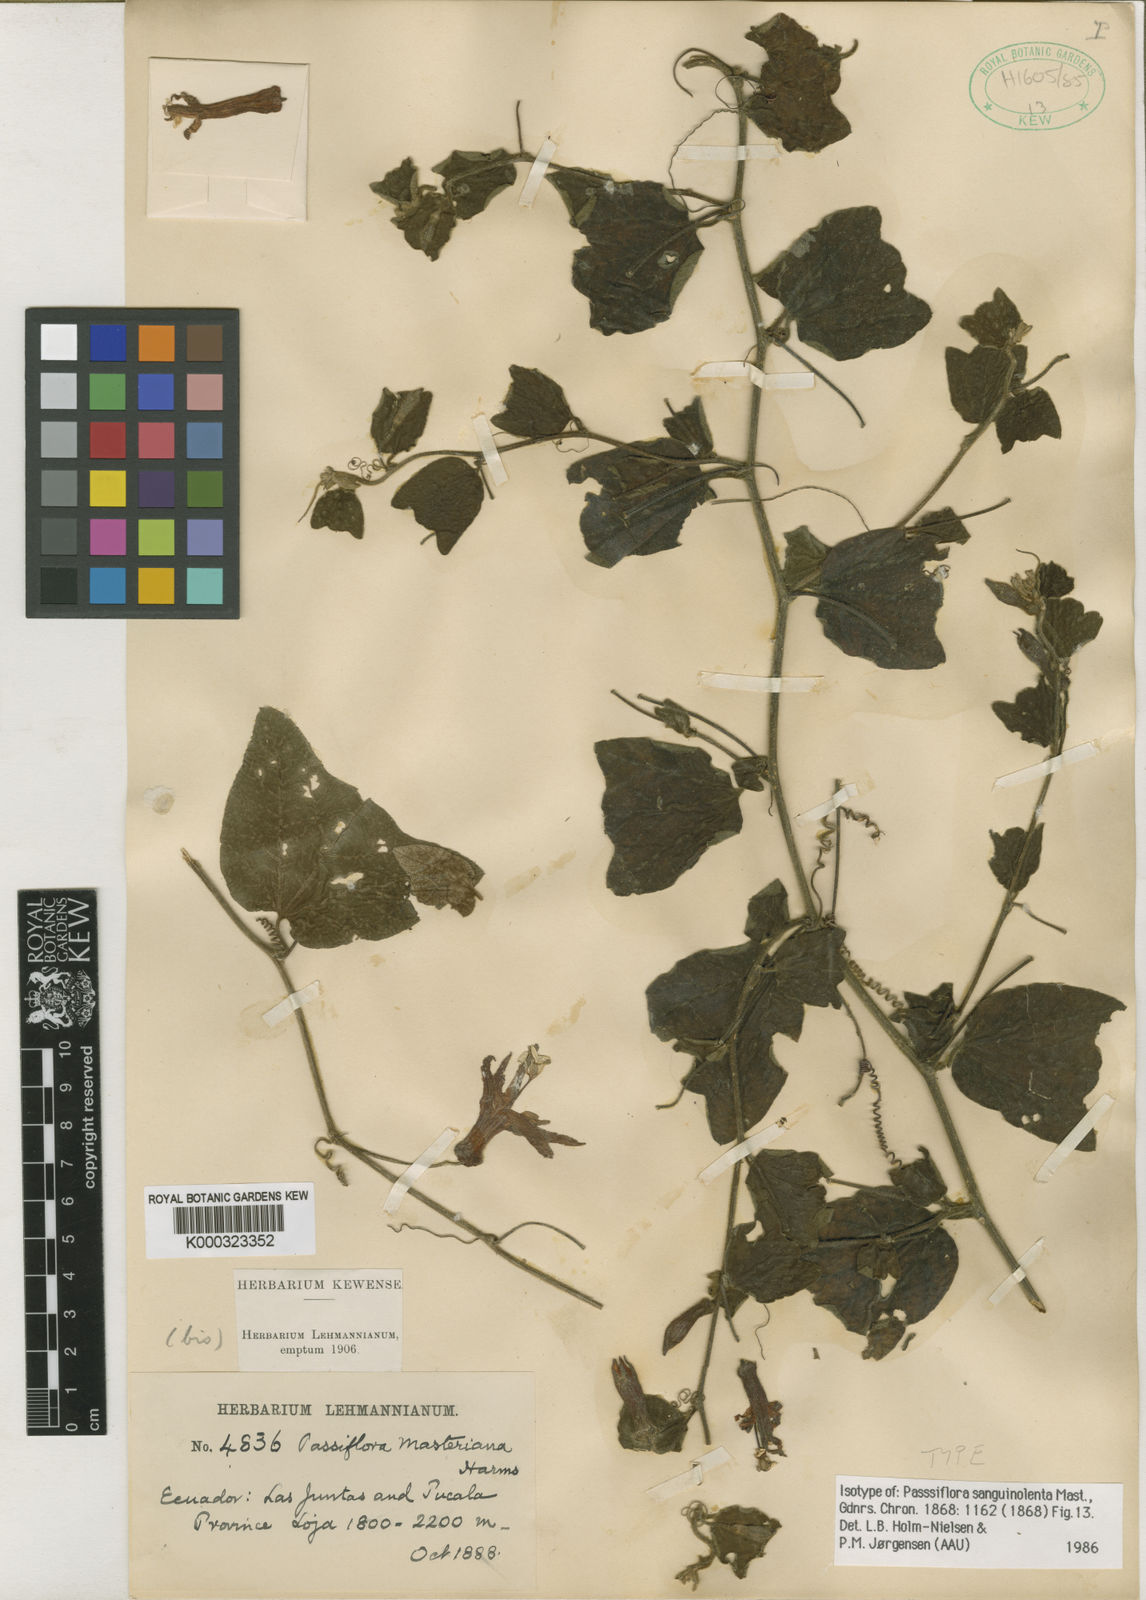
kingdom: Plantae
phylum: Tracheophyta
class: Magnoliopsida
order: Malpighiales
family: Passifloraceae
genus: Passiflora
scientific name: Passiflora sanguinolenta
